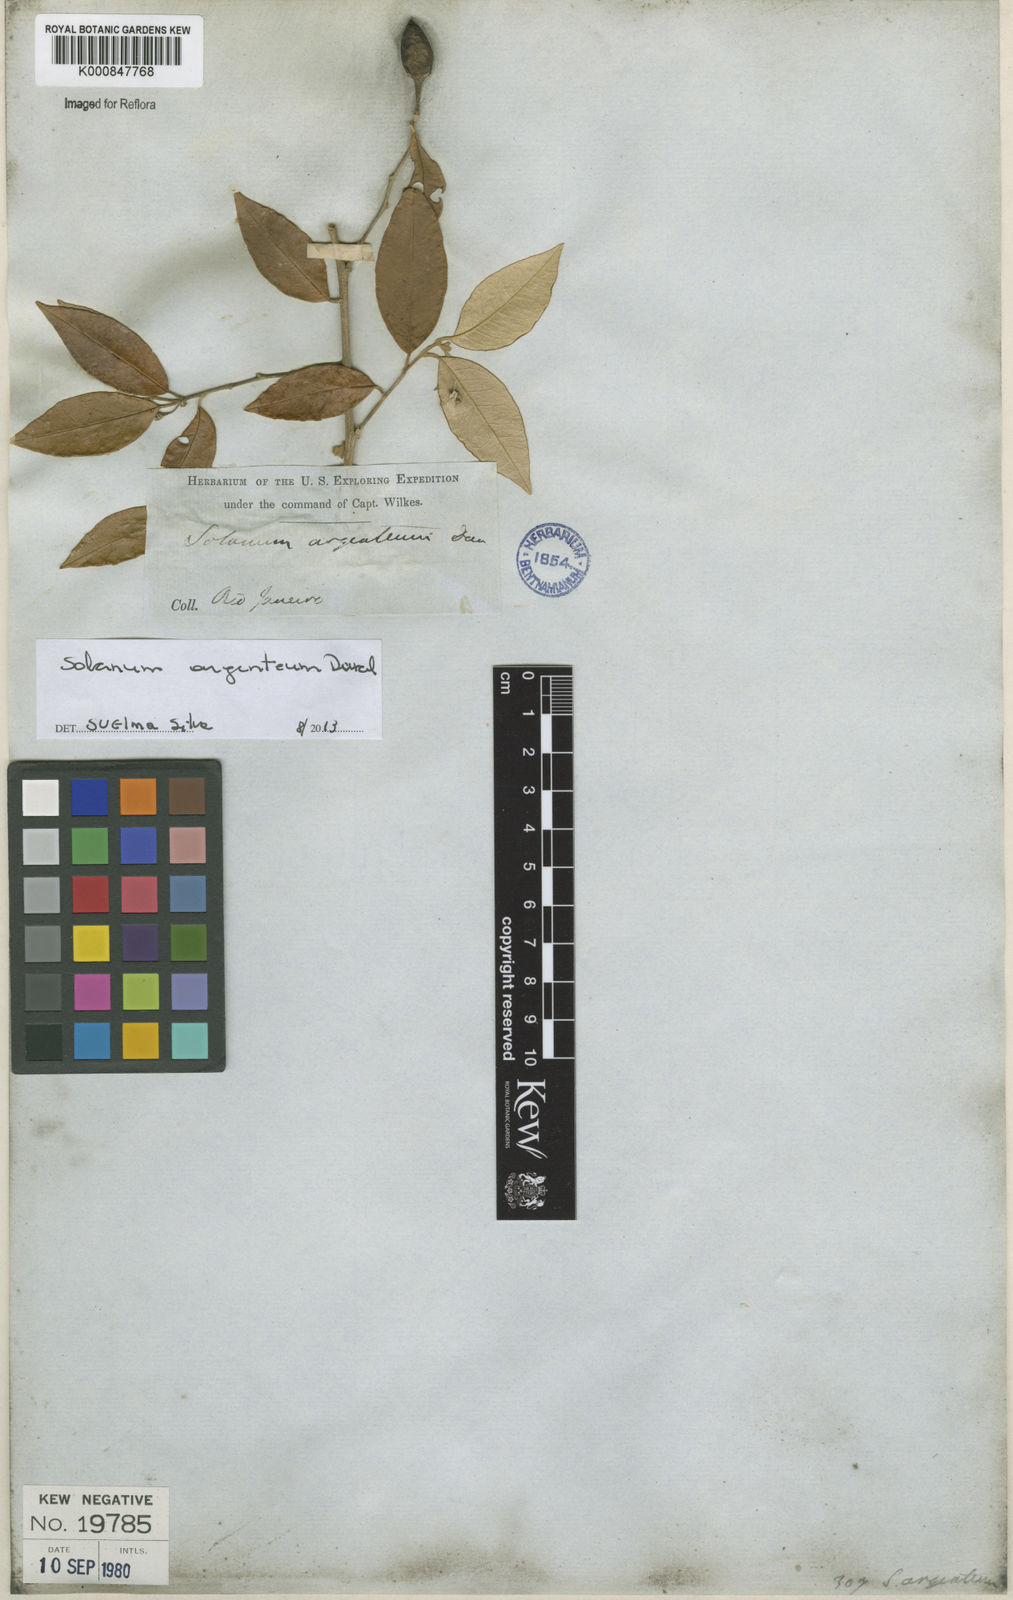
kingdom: Plantae
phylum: Tracheophyta
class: Magnoliopsida
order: Solanales
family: Solanaceae
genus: Solanum
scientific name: Solanum swartzianum
